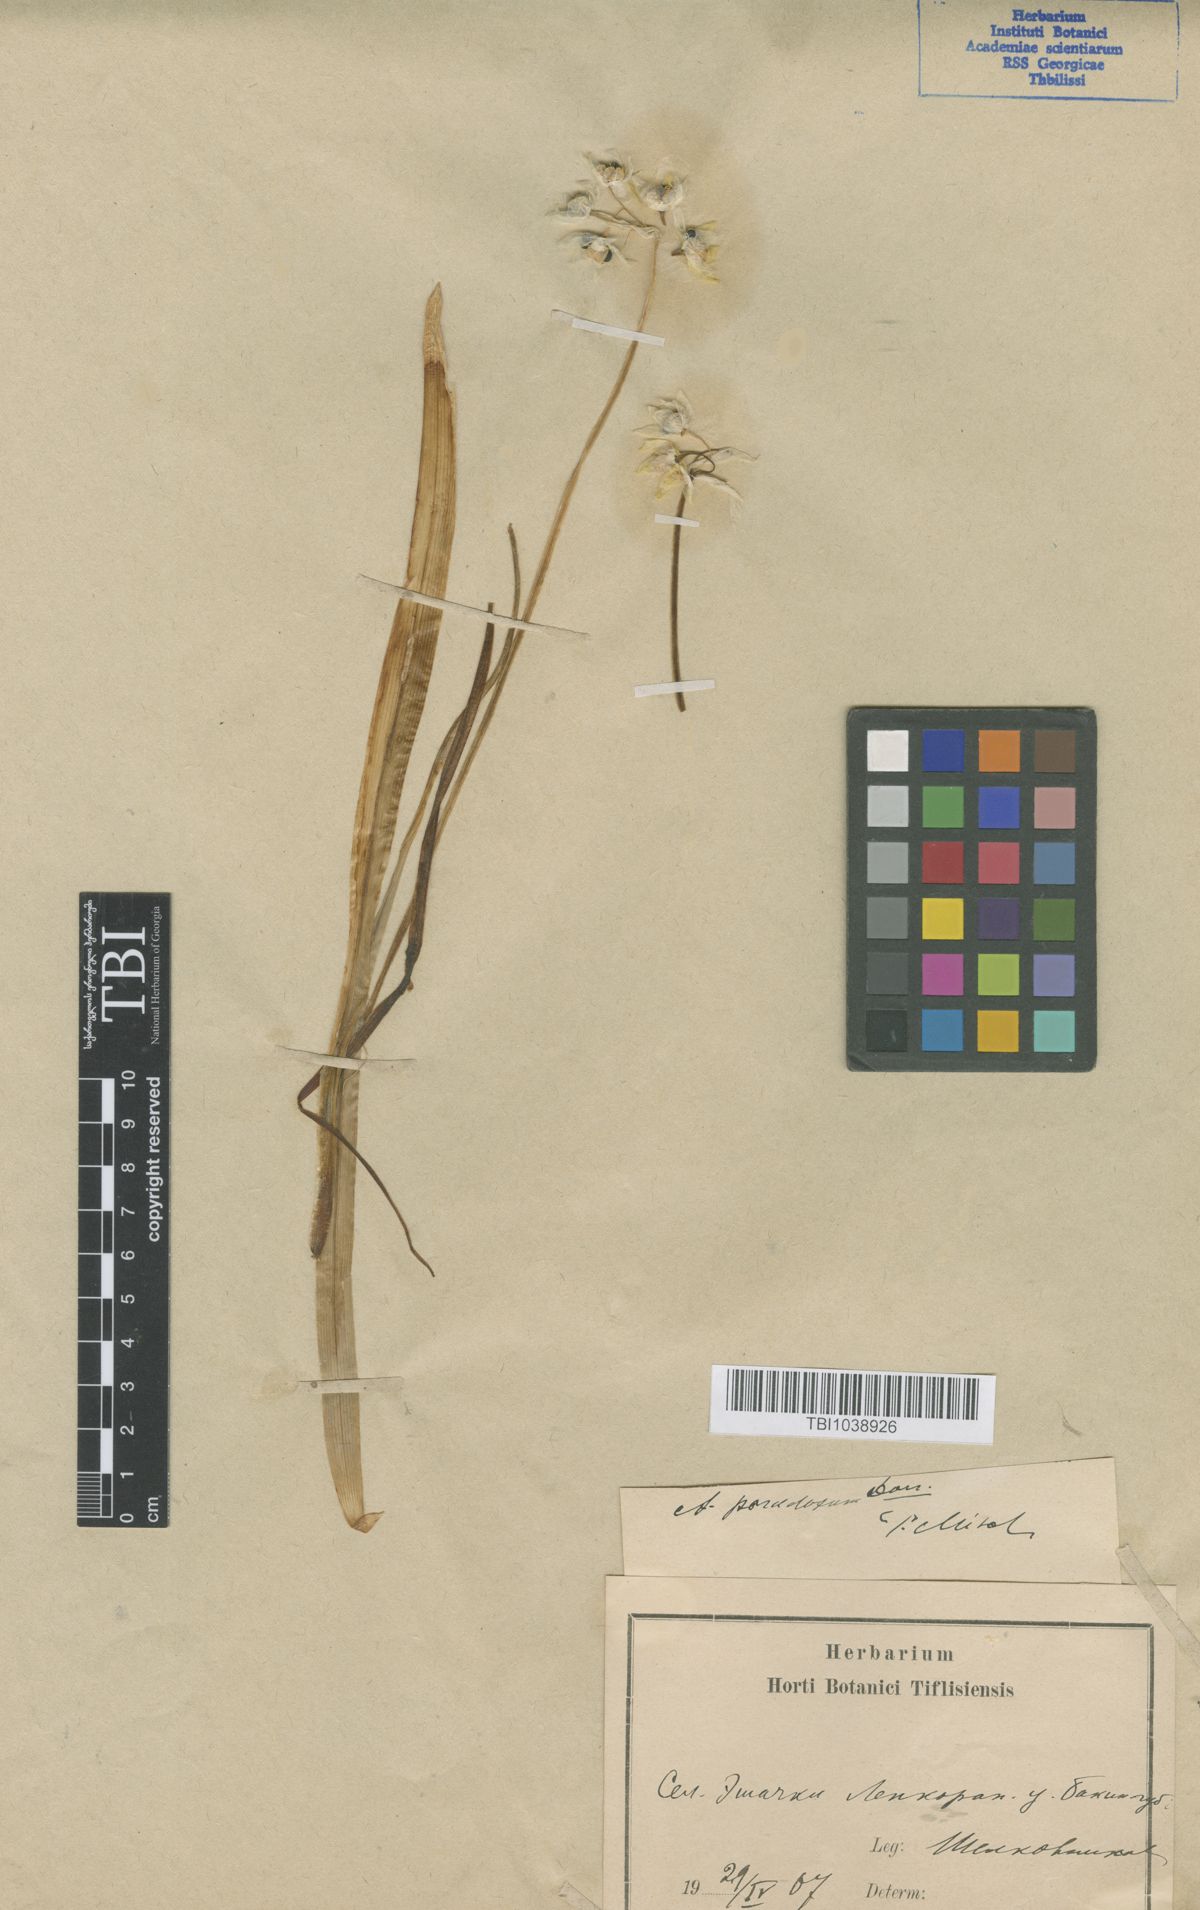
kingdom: Plantae
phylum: Tracheophyta
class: Liliopsida
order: Asparagales
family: Amaryllidaceae
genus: Allium
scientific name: Allium paradoxum
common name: Few-flowered garlic
